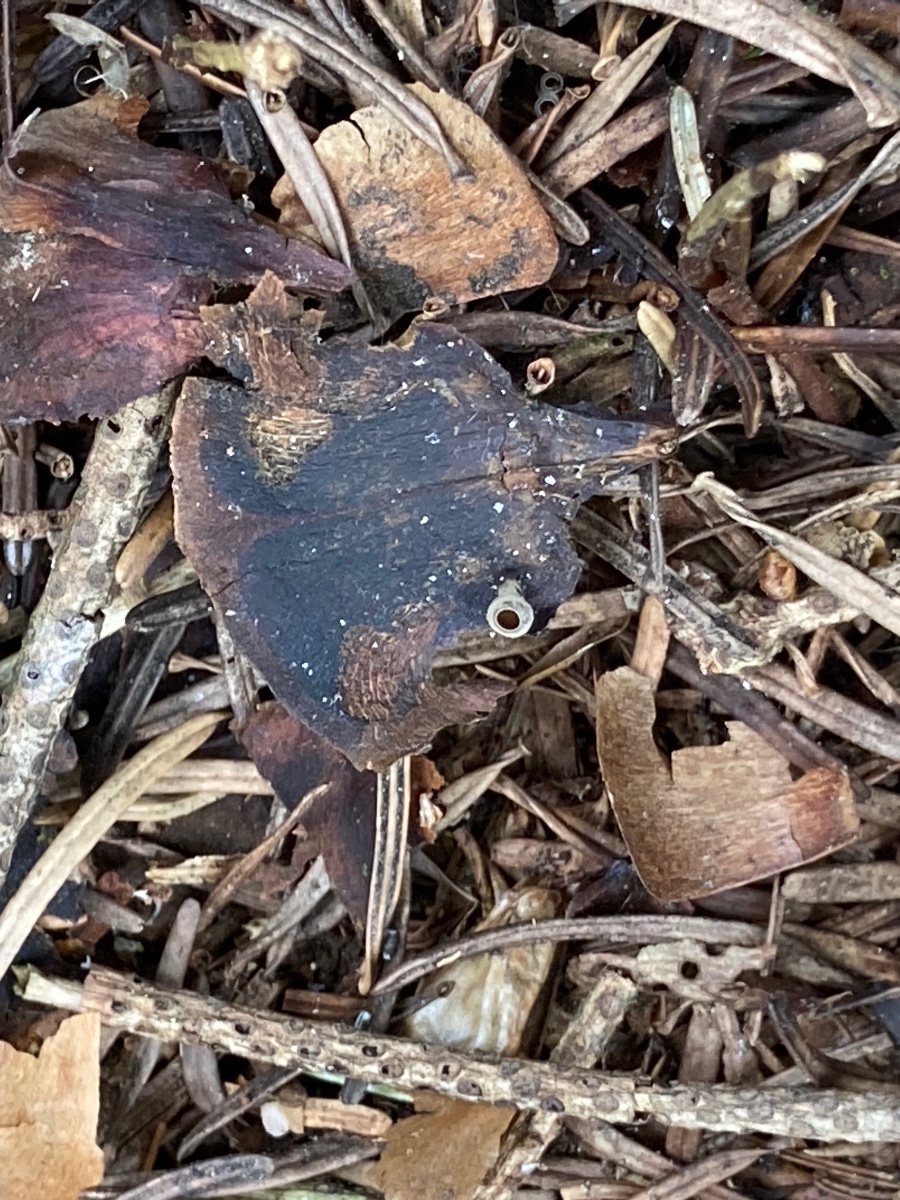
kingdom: Fungi
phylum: Ascomycota
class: Leotiomycetes
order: Helotiales
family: Sclerotiniaceae
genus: Ciboria
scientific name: Ciboria rufofusca
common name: kogleskæl-knoldskive
